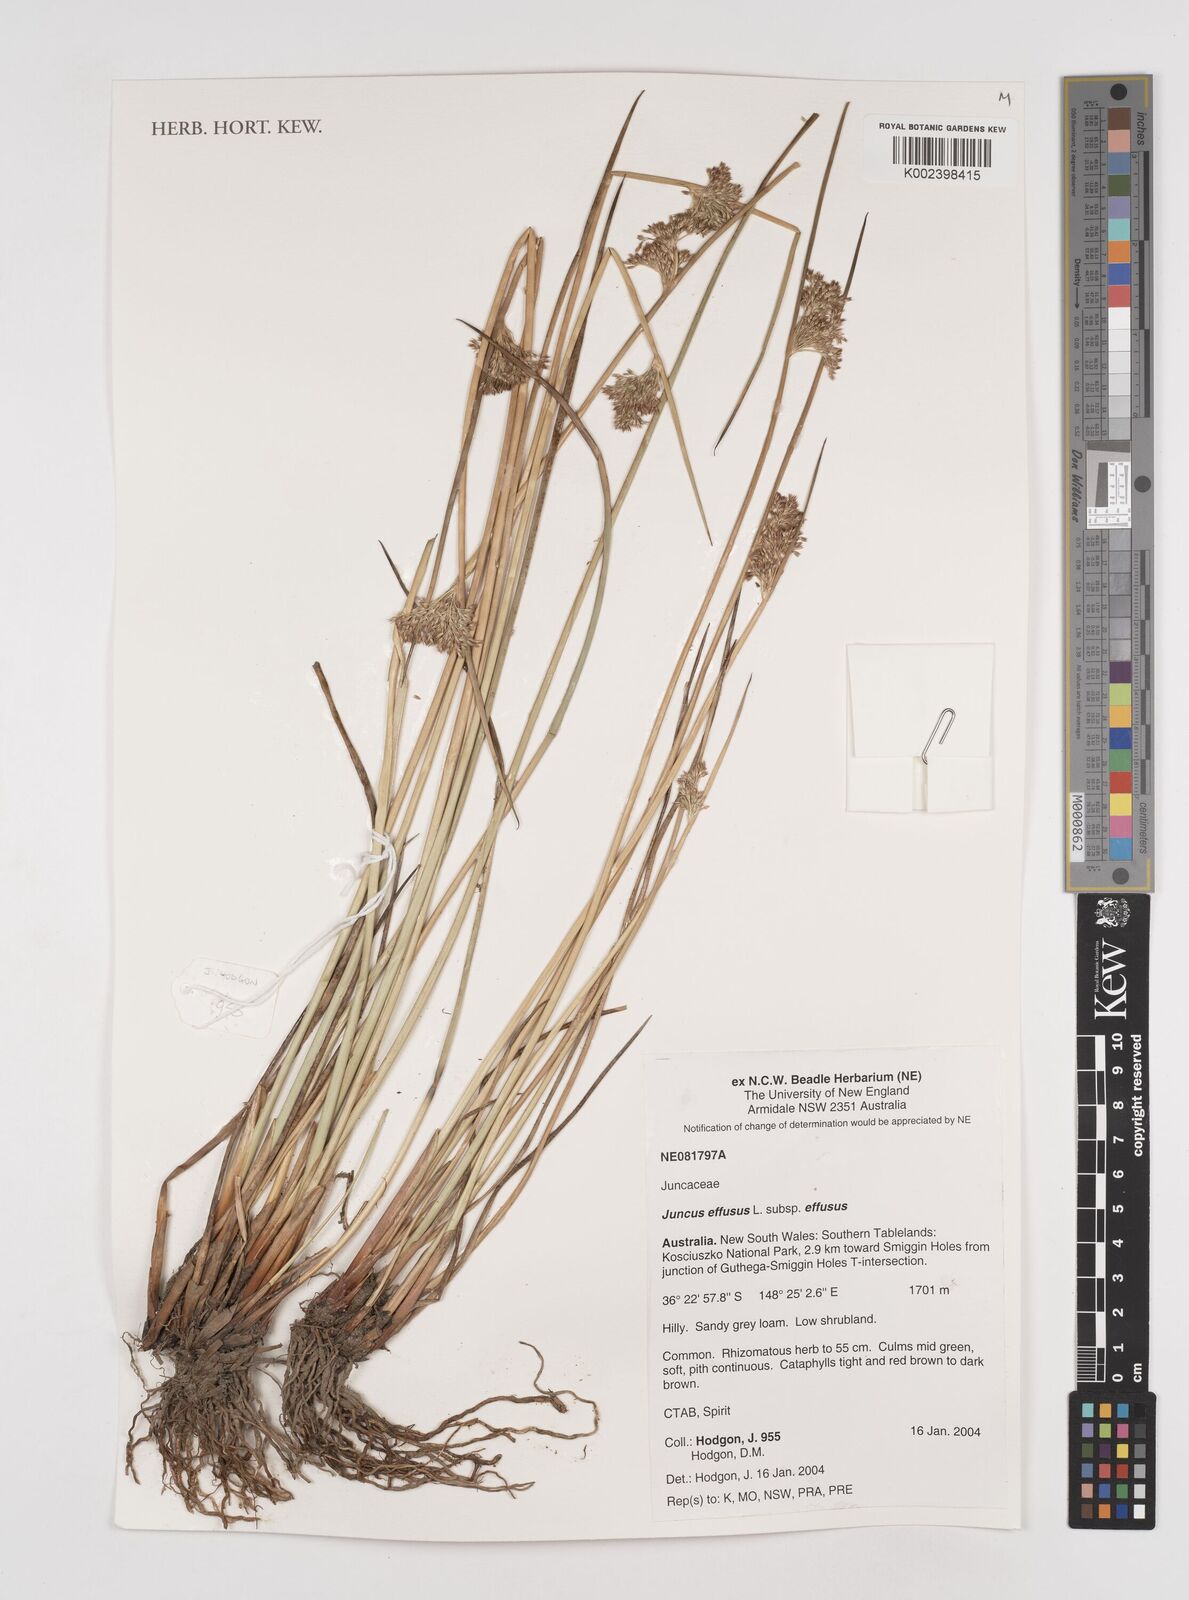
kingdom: Plantae
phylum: Tracheophyta
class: Liliopsida
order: Poales
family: Juncaceae
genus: Juncus
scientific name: Juncus effusus
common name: Soft rush
